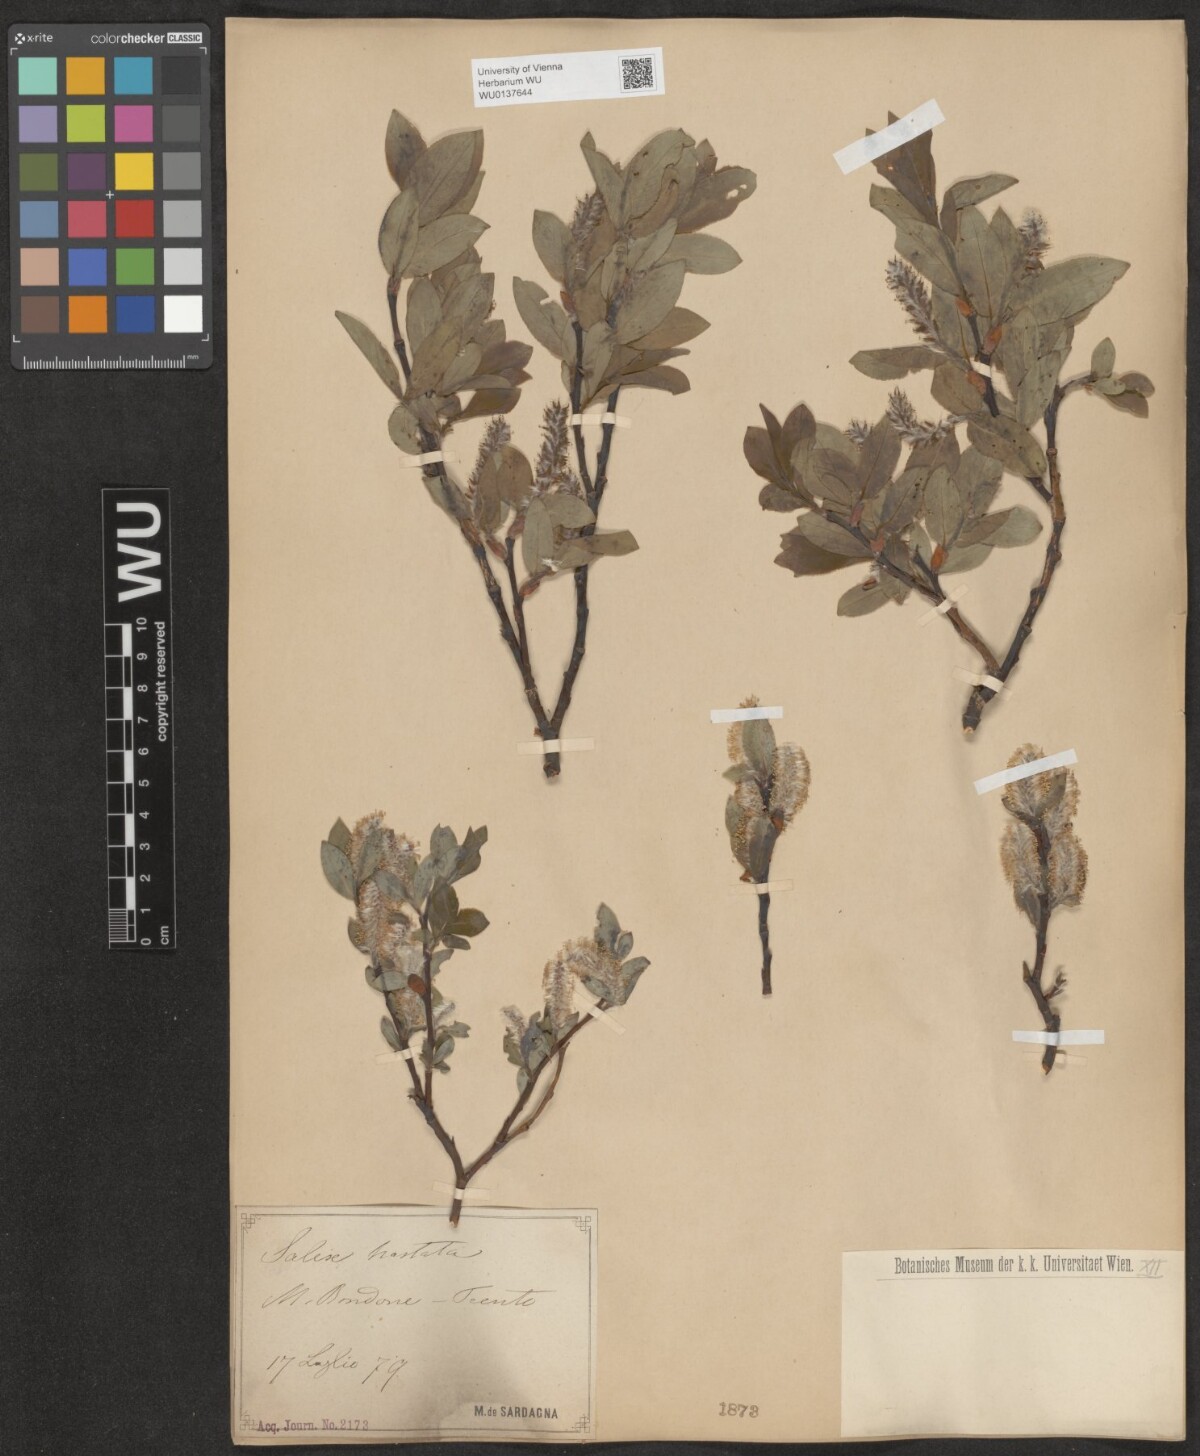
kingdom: Plantae
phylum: Tracheophyta
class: Magnoliopsida
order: Malpighiales
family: Salicaceae
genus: Salix
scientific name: Salix hastata
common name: Halberd willow
